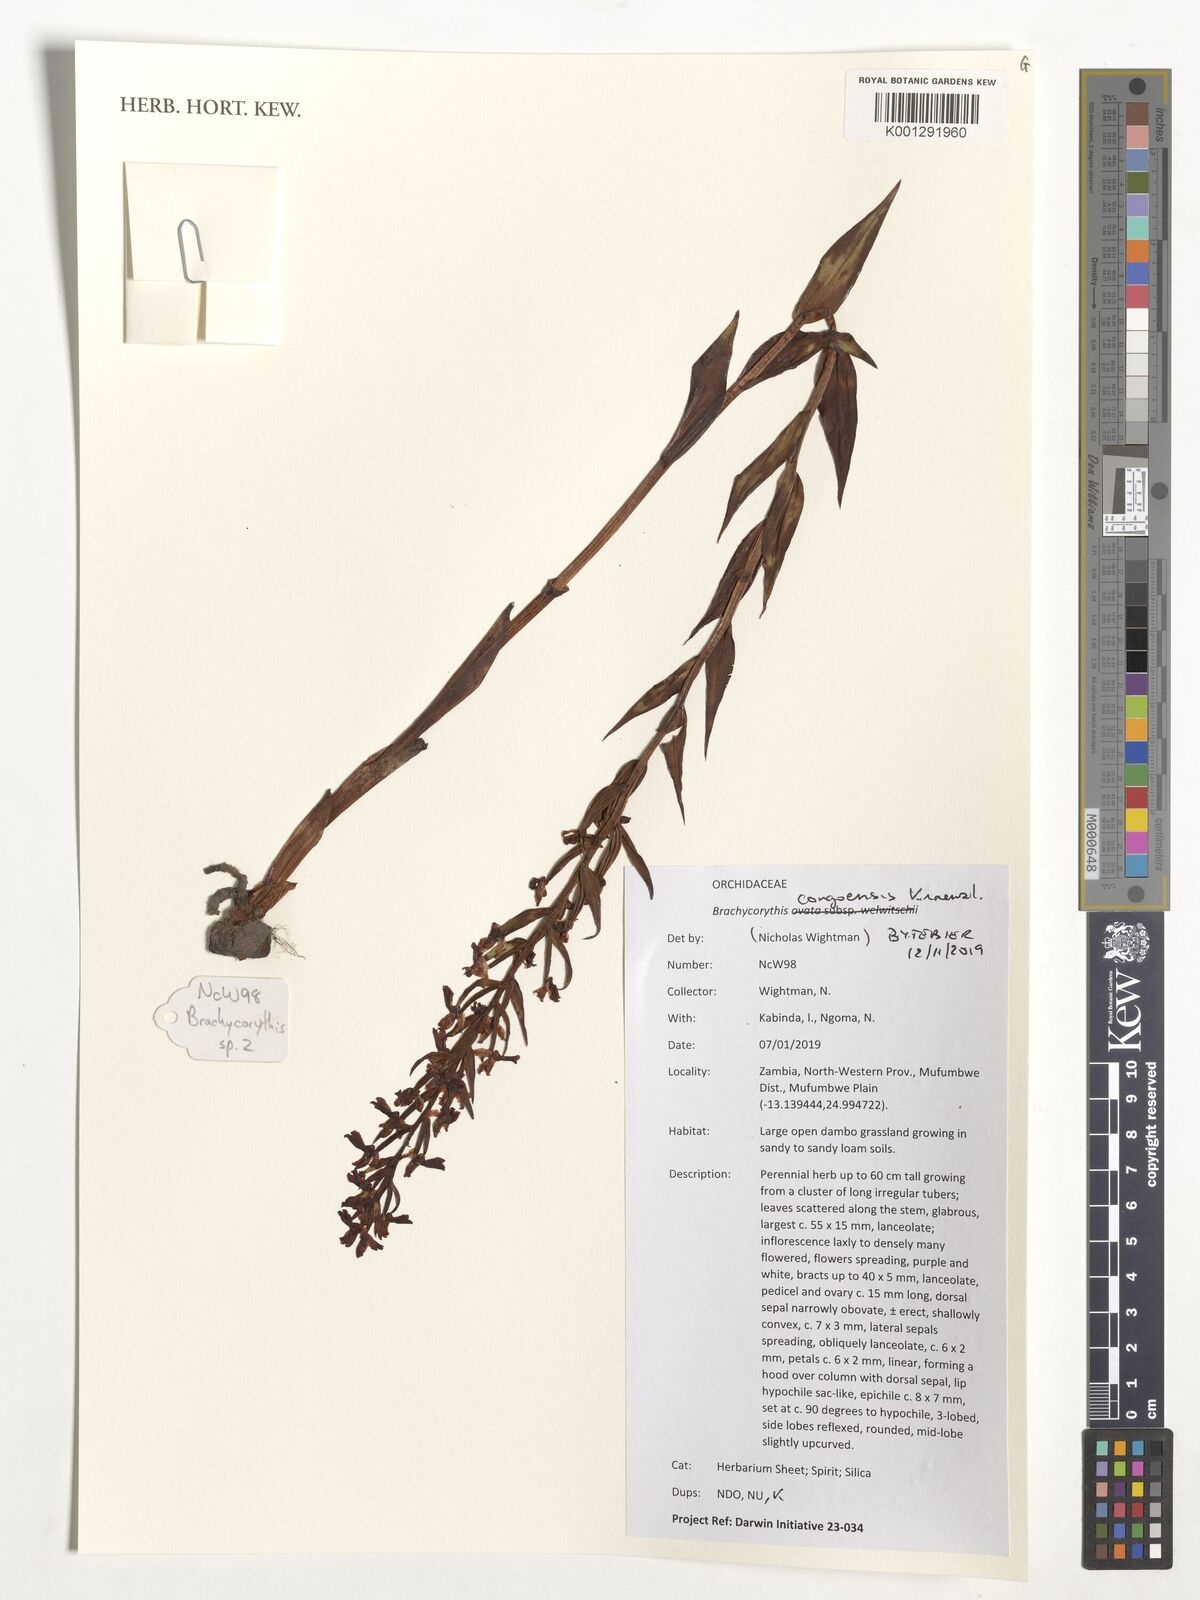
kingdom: Plantae
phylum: Tracheophyta
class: Liliopsida
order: Asparagales
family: Orchidaceae
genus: Brachycorythis
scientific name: Brachycorythis congoensis
